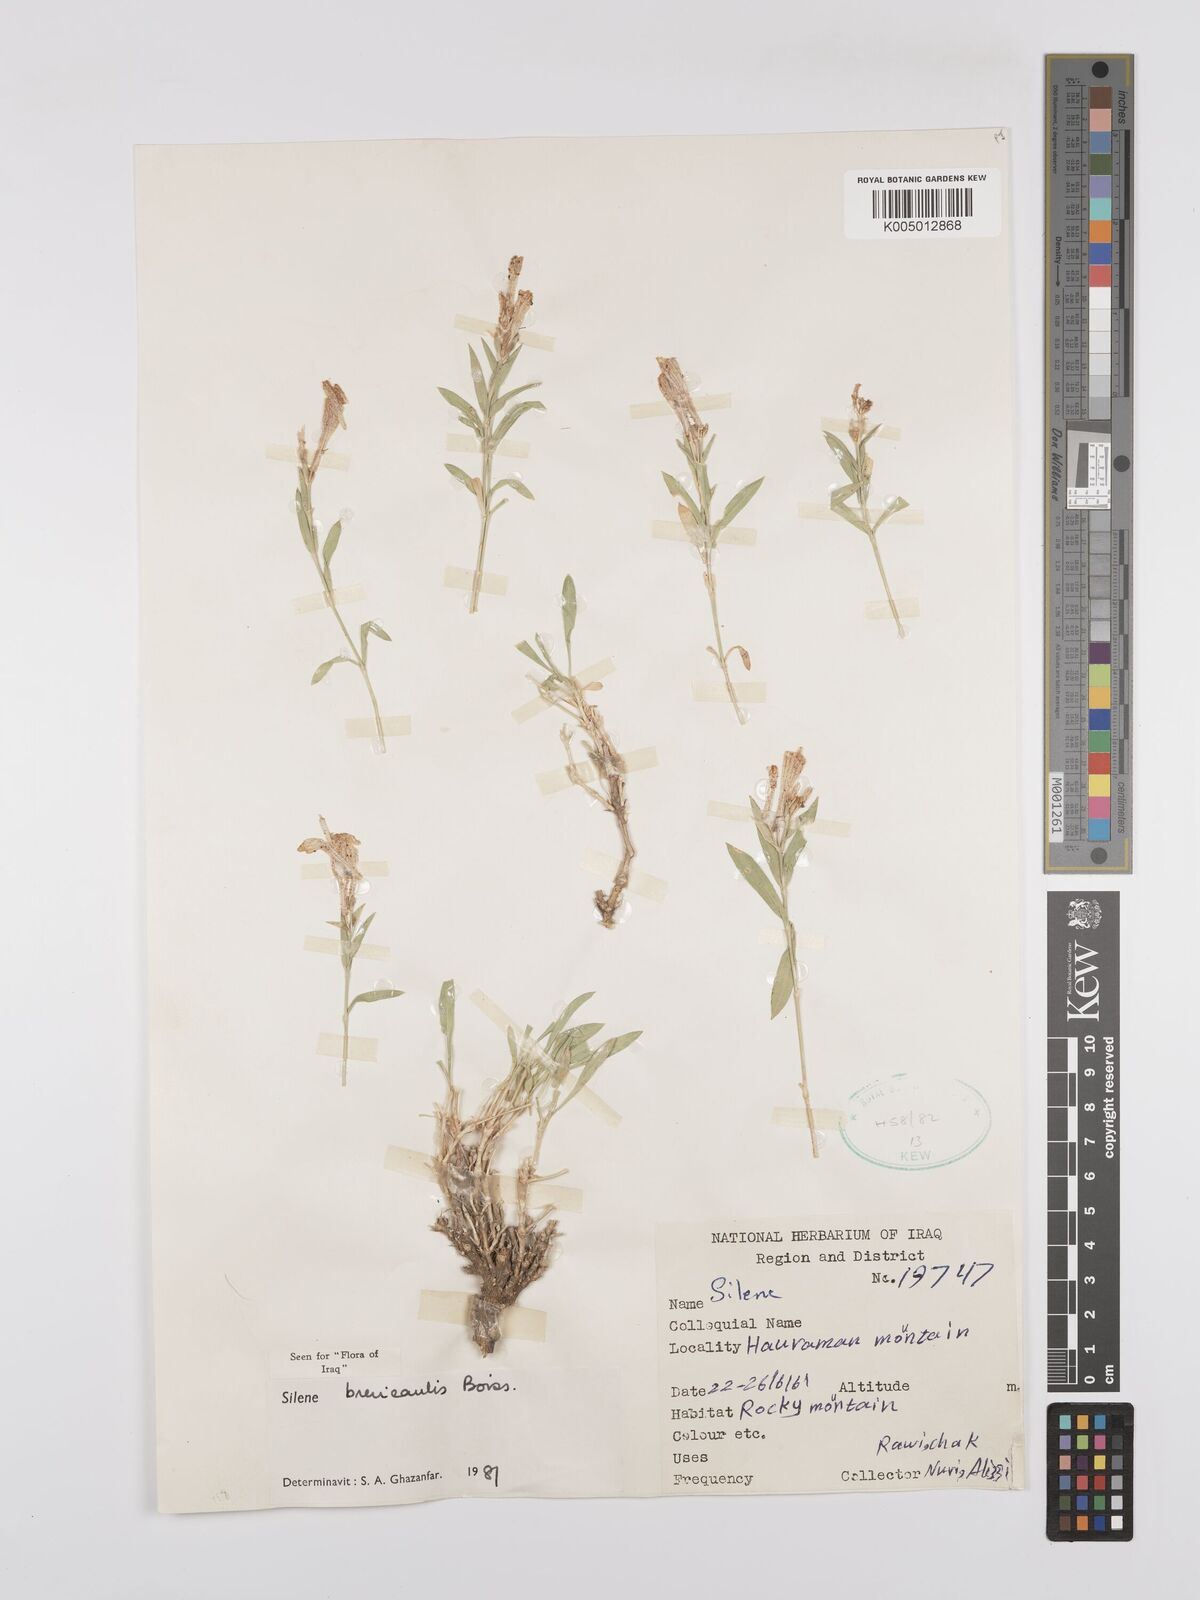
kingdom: Plantae
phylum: Tracheophyta
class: Magnoliopsida
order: Caryophyllales
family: Caryophyllaceae
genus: Silene
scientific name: Silene brevicaulis
